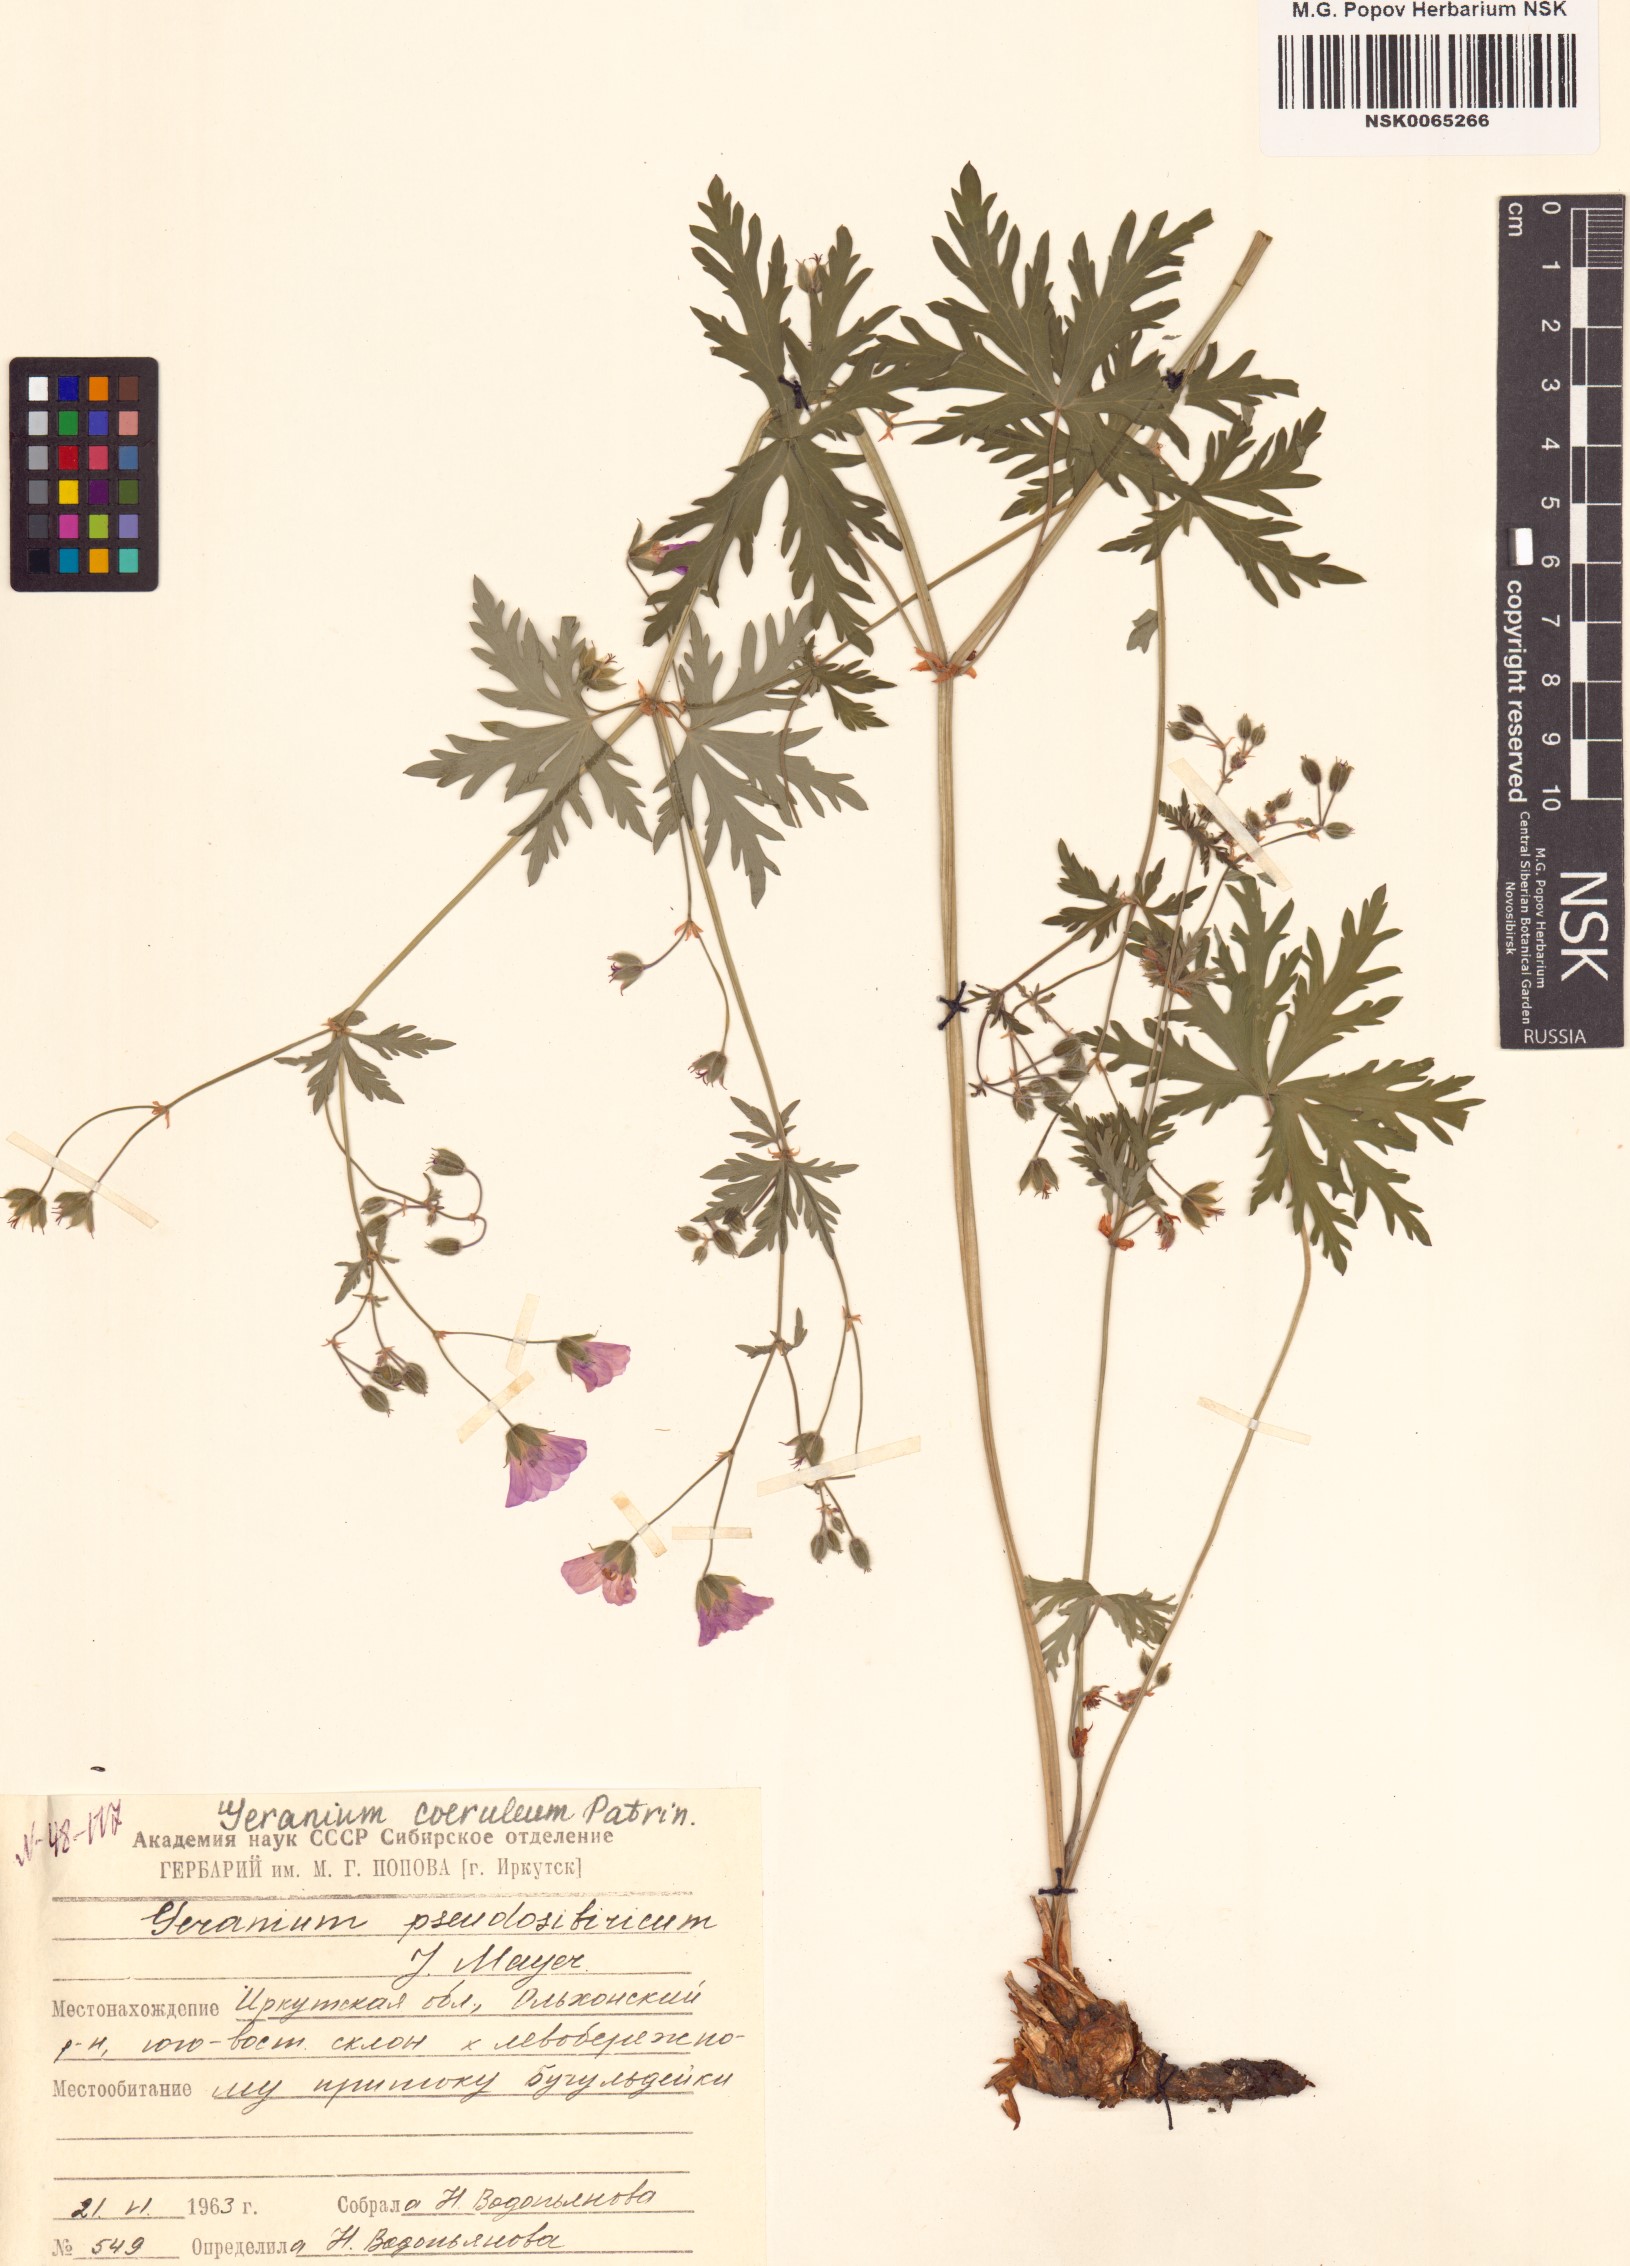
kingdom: Plantae
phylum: Tracheophyta
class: Magnoliopsida
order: Geraniales
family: Geraniaceae
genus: Geranium
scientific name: Geranium pseudosibiricum
